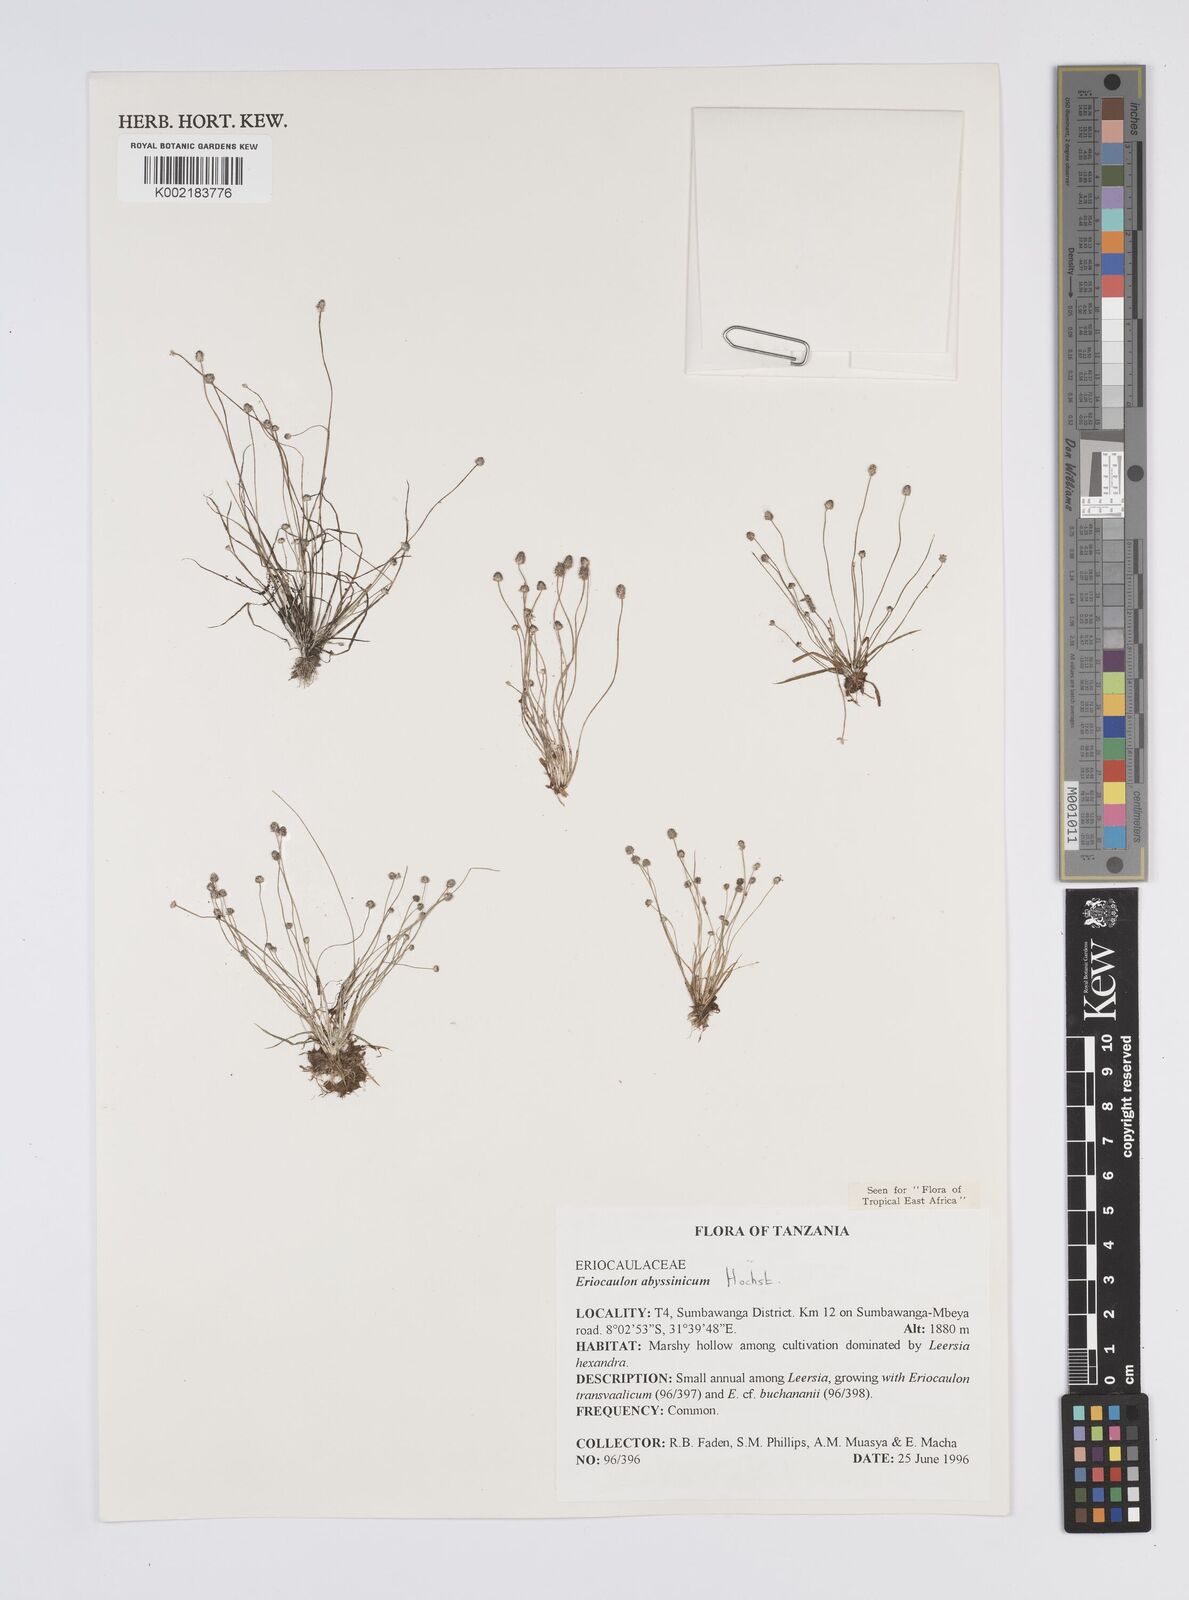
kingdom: Plantae
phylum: Tracheophyta
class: Liliopsida
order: Poales
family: Eriocaulaceae
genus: Eriocaulon
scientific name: Eriocaulon abyssinicum
